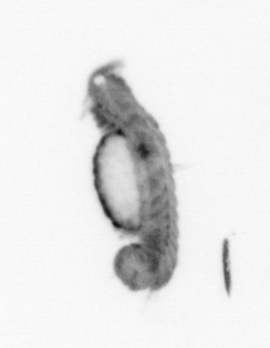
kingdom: Animalia
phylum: Annelida
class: Polychaeta
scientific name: Polychaeta
